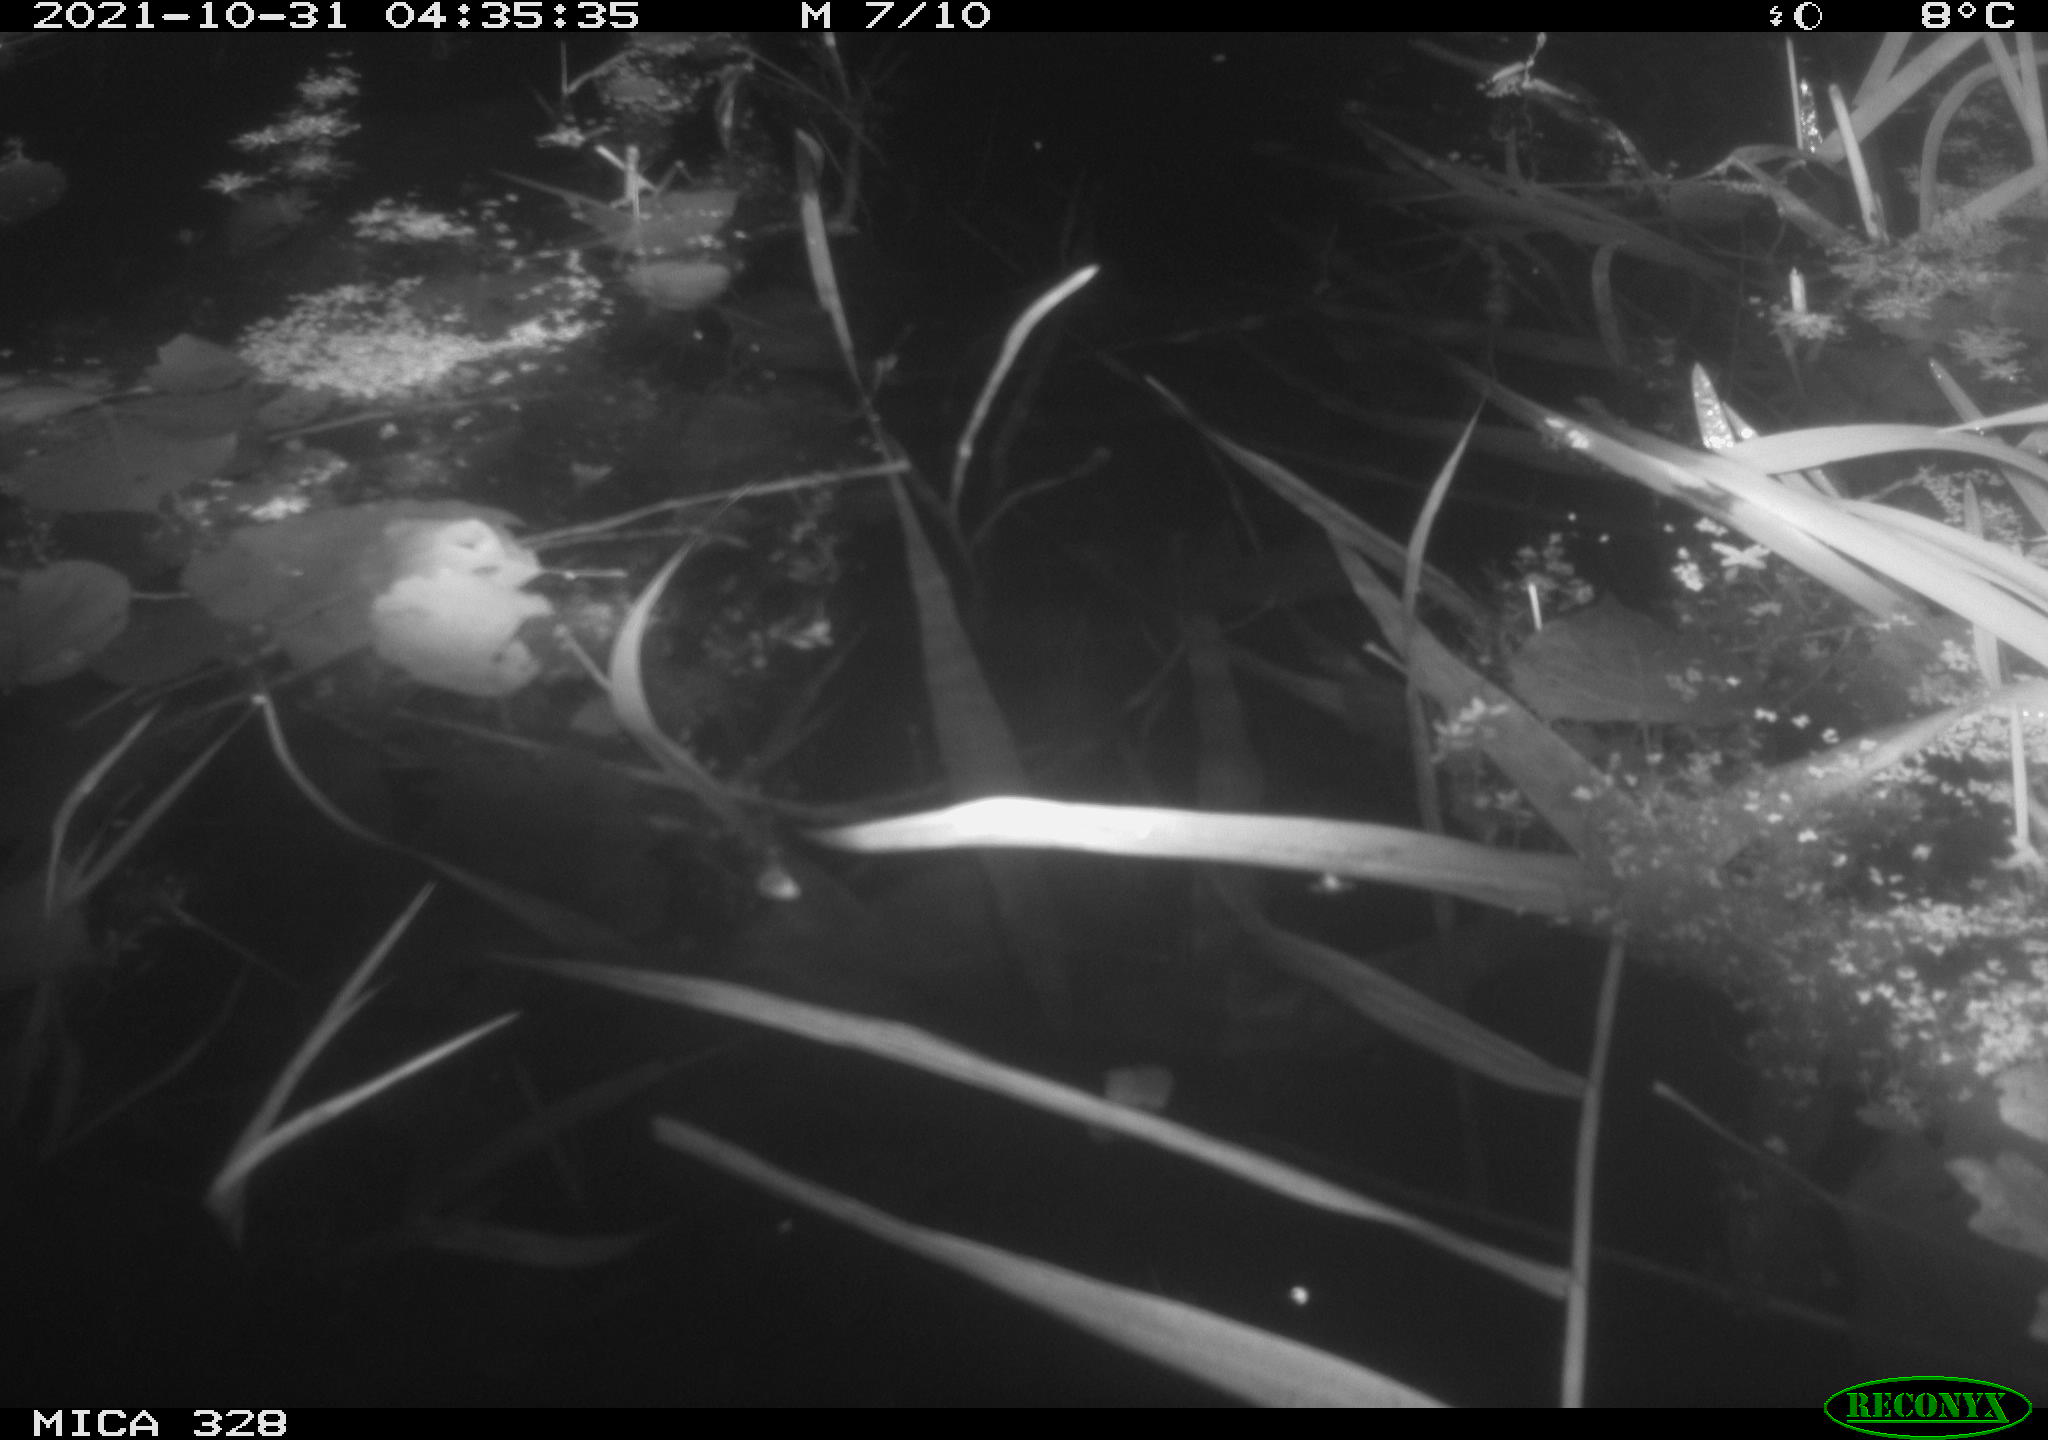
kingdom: Animalia
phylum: Chordata
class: Mammalia
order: Rodentia
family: Cricetidae
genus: Ondatra
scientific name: Ondatra zibethicus
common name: Muskrat
